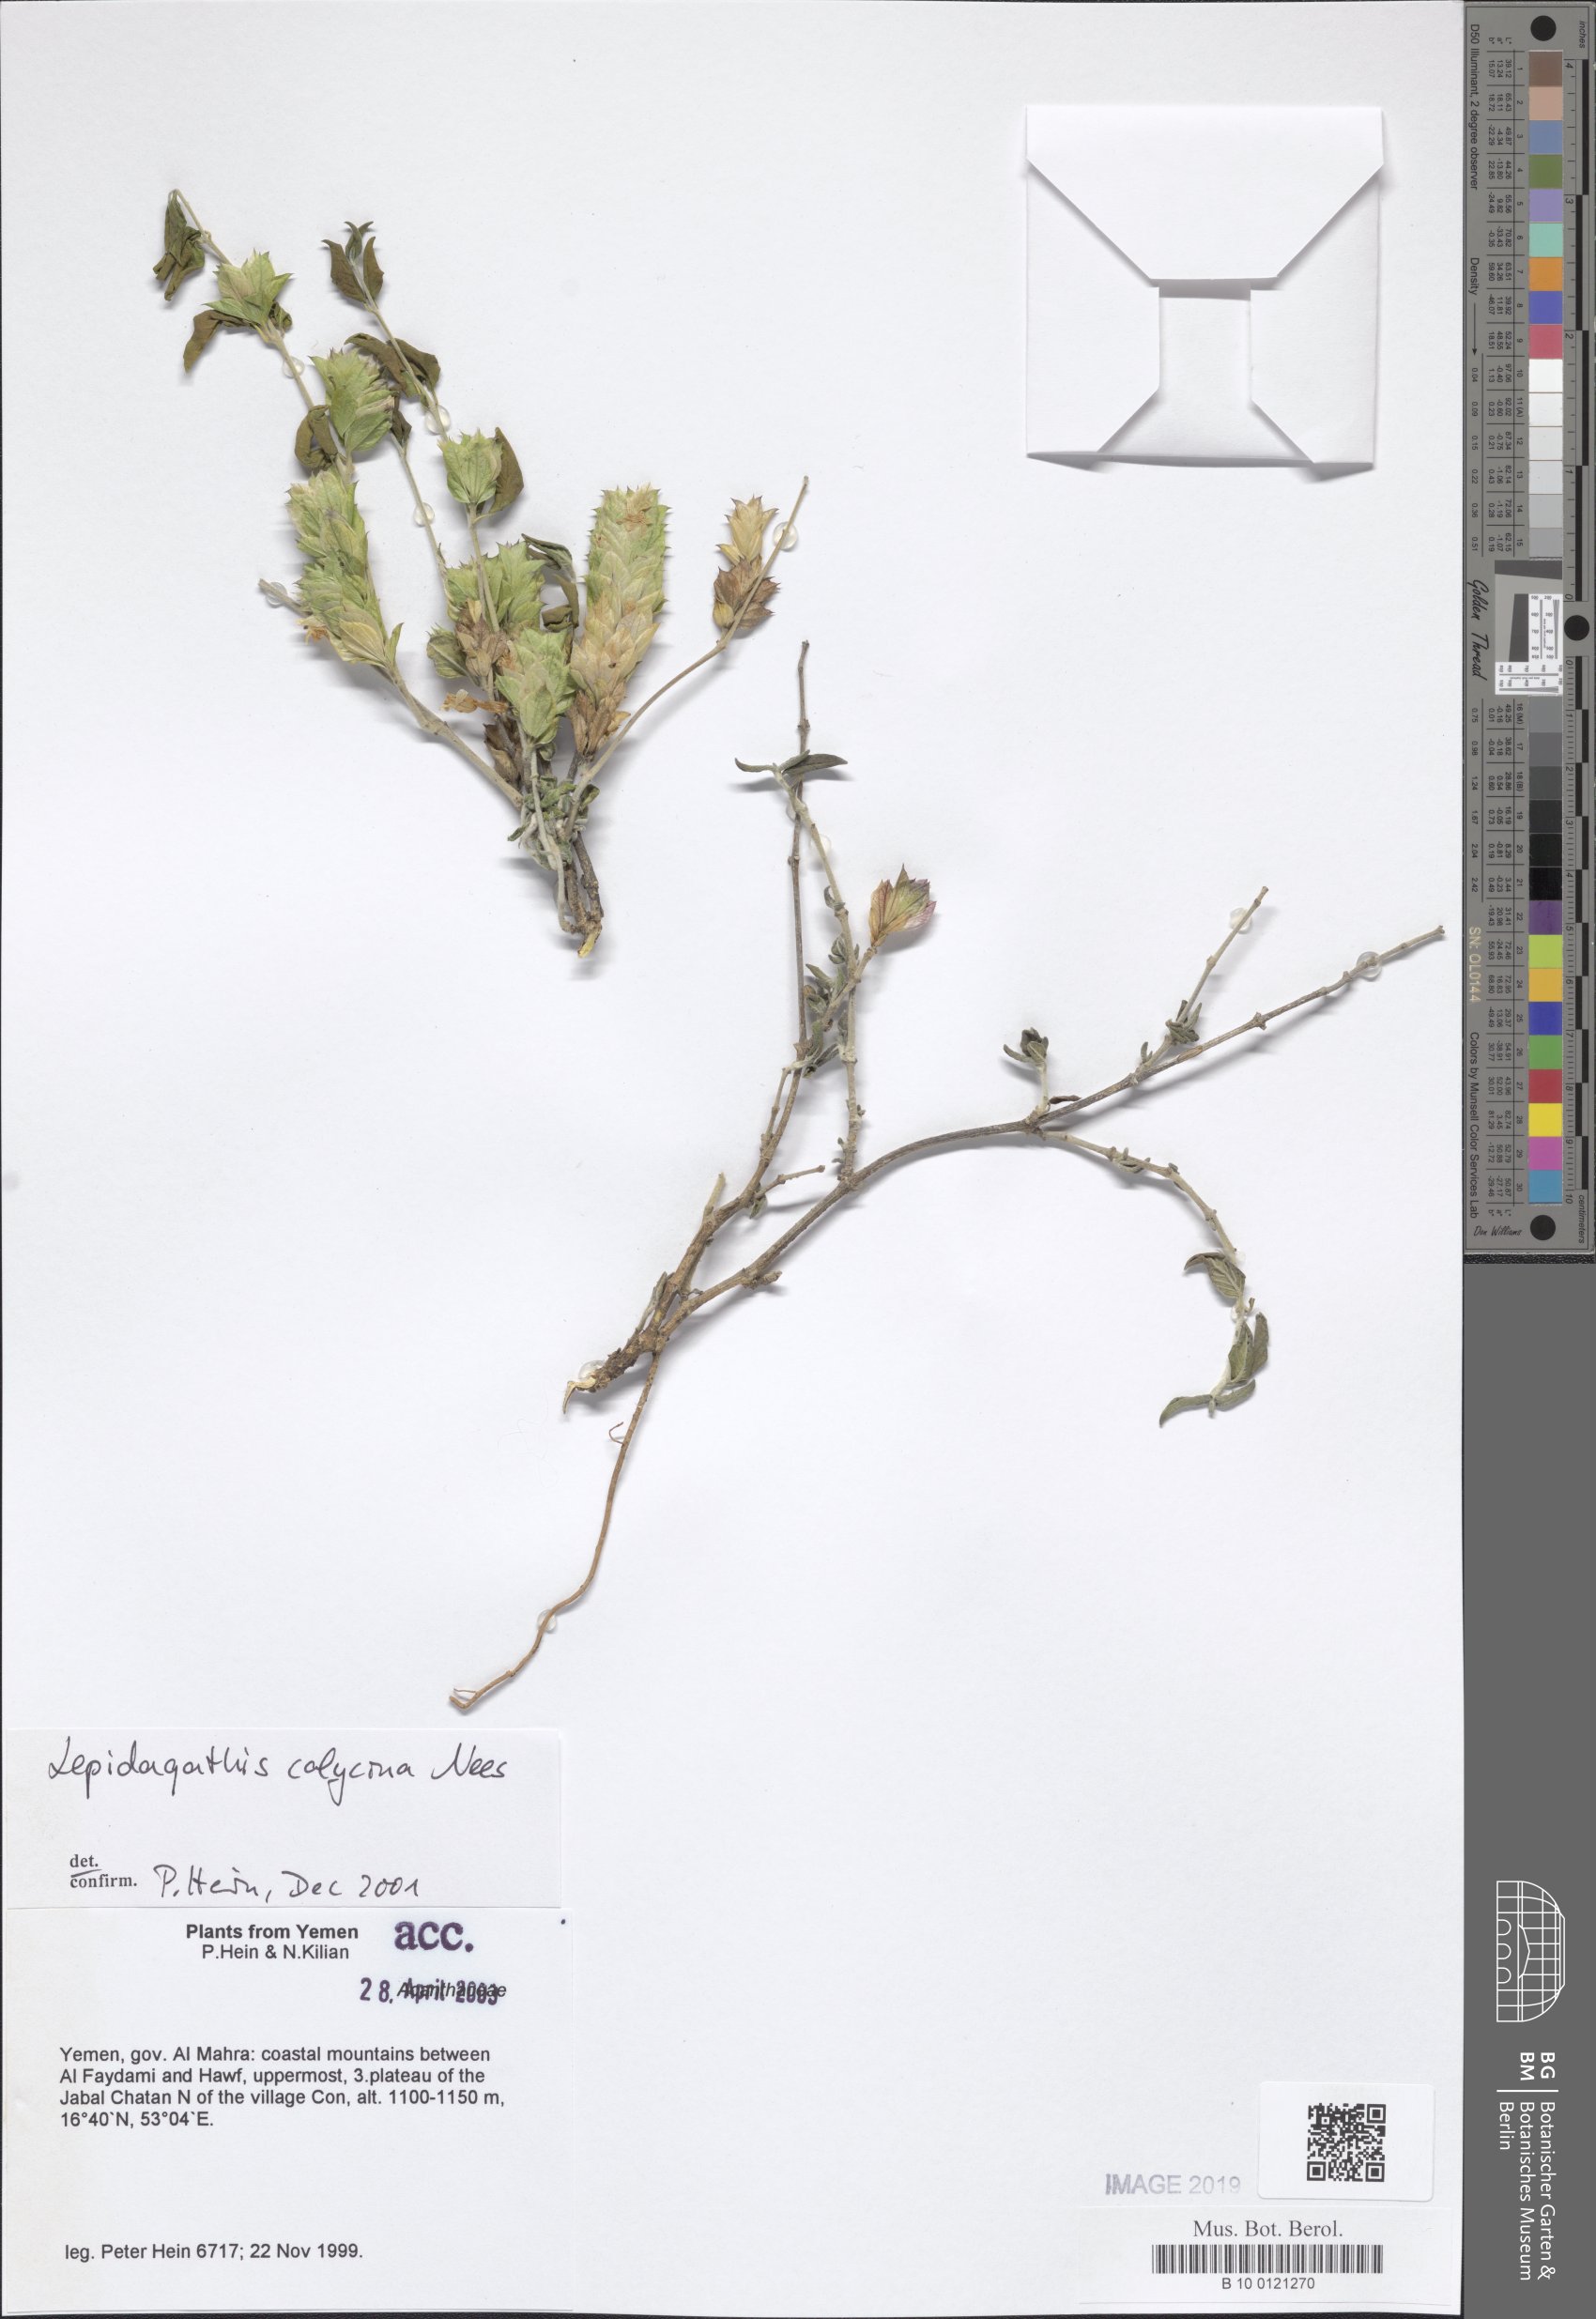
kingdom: Plantae
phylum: Tracheophyta
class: Magnoliopsida
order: Lamiales
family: Acanthaceae
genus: Lepidagathis
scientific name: Lepidagathis calycina
